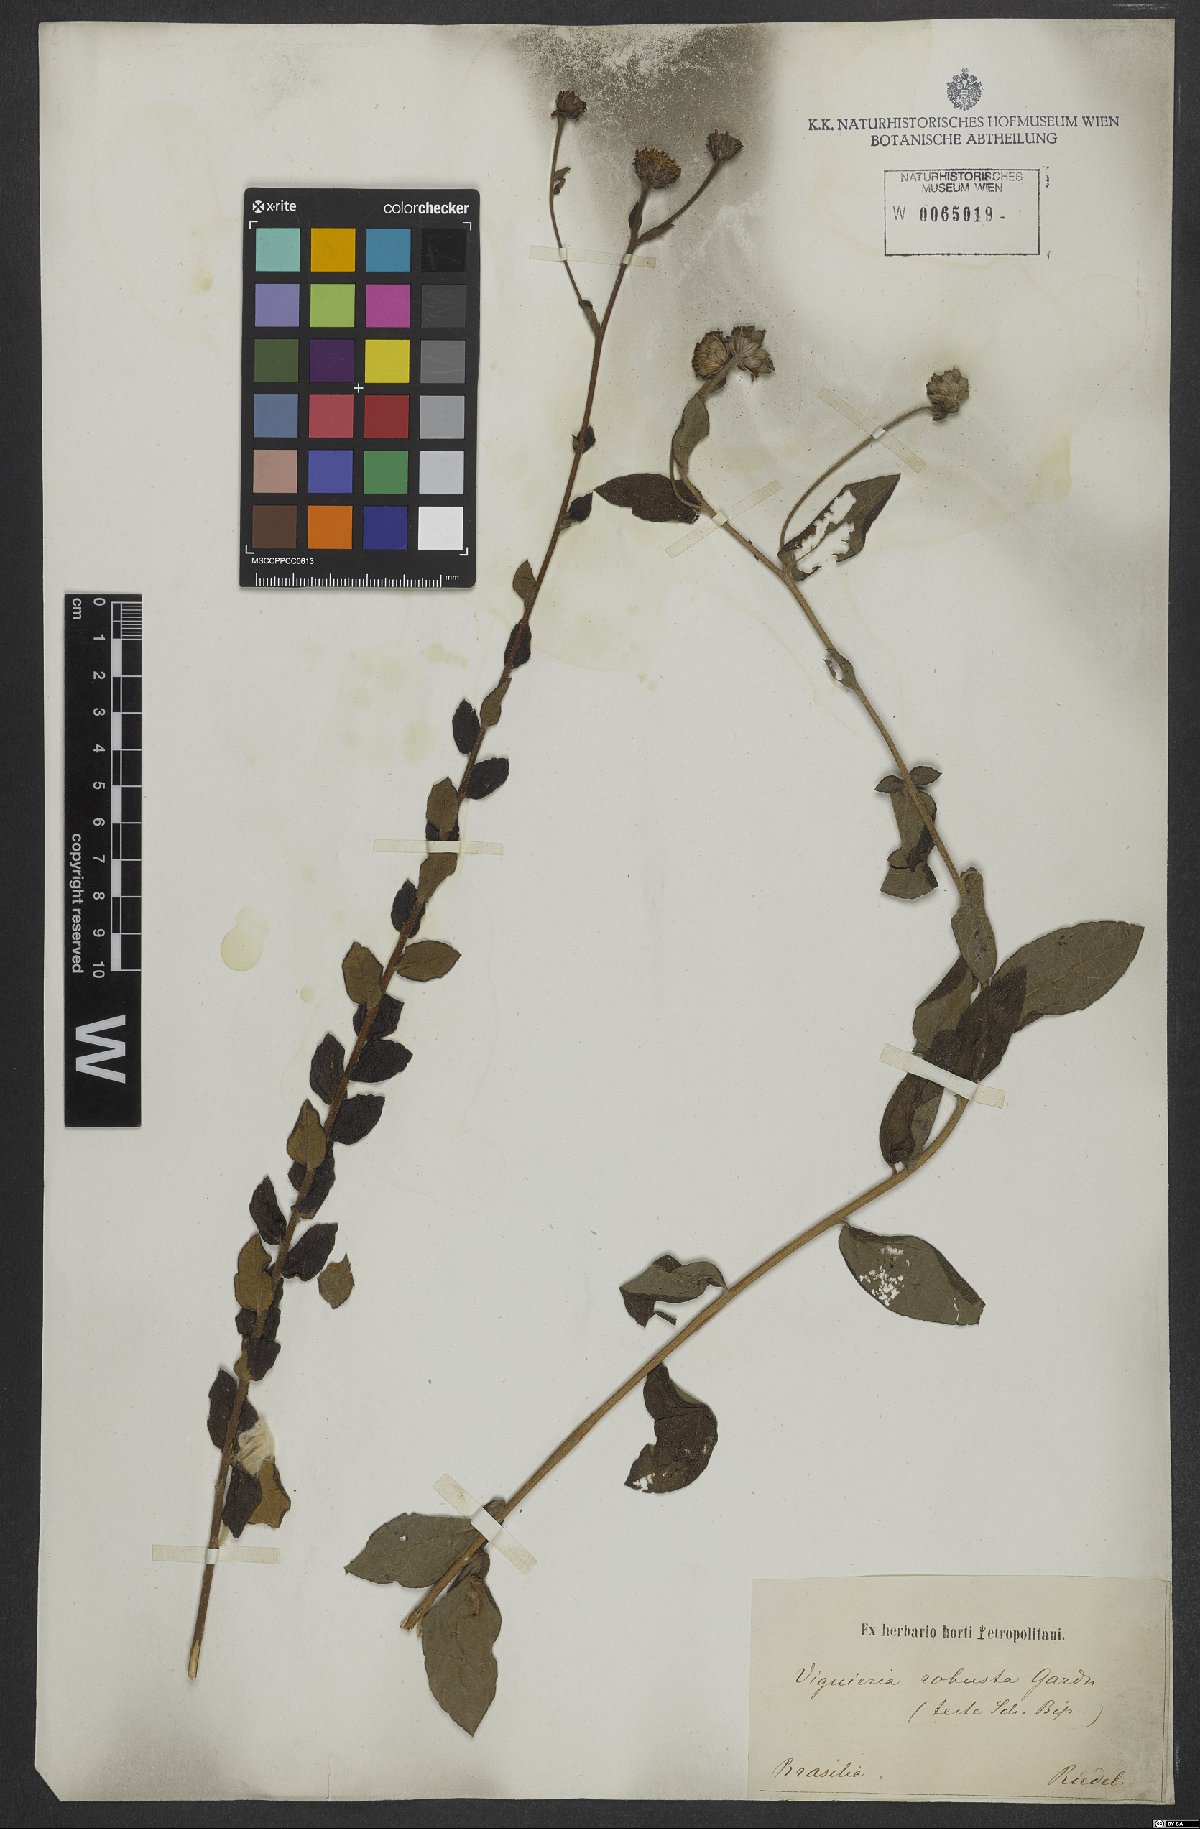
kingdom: Plantae
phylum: Tracheophyta
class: Magnoliopsida
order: Asterales
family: Asteraceae
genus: Aldama
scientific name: Aldama robusta
